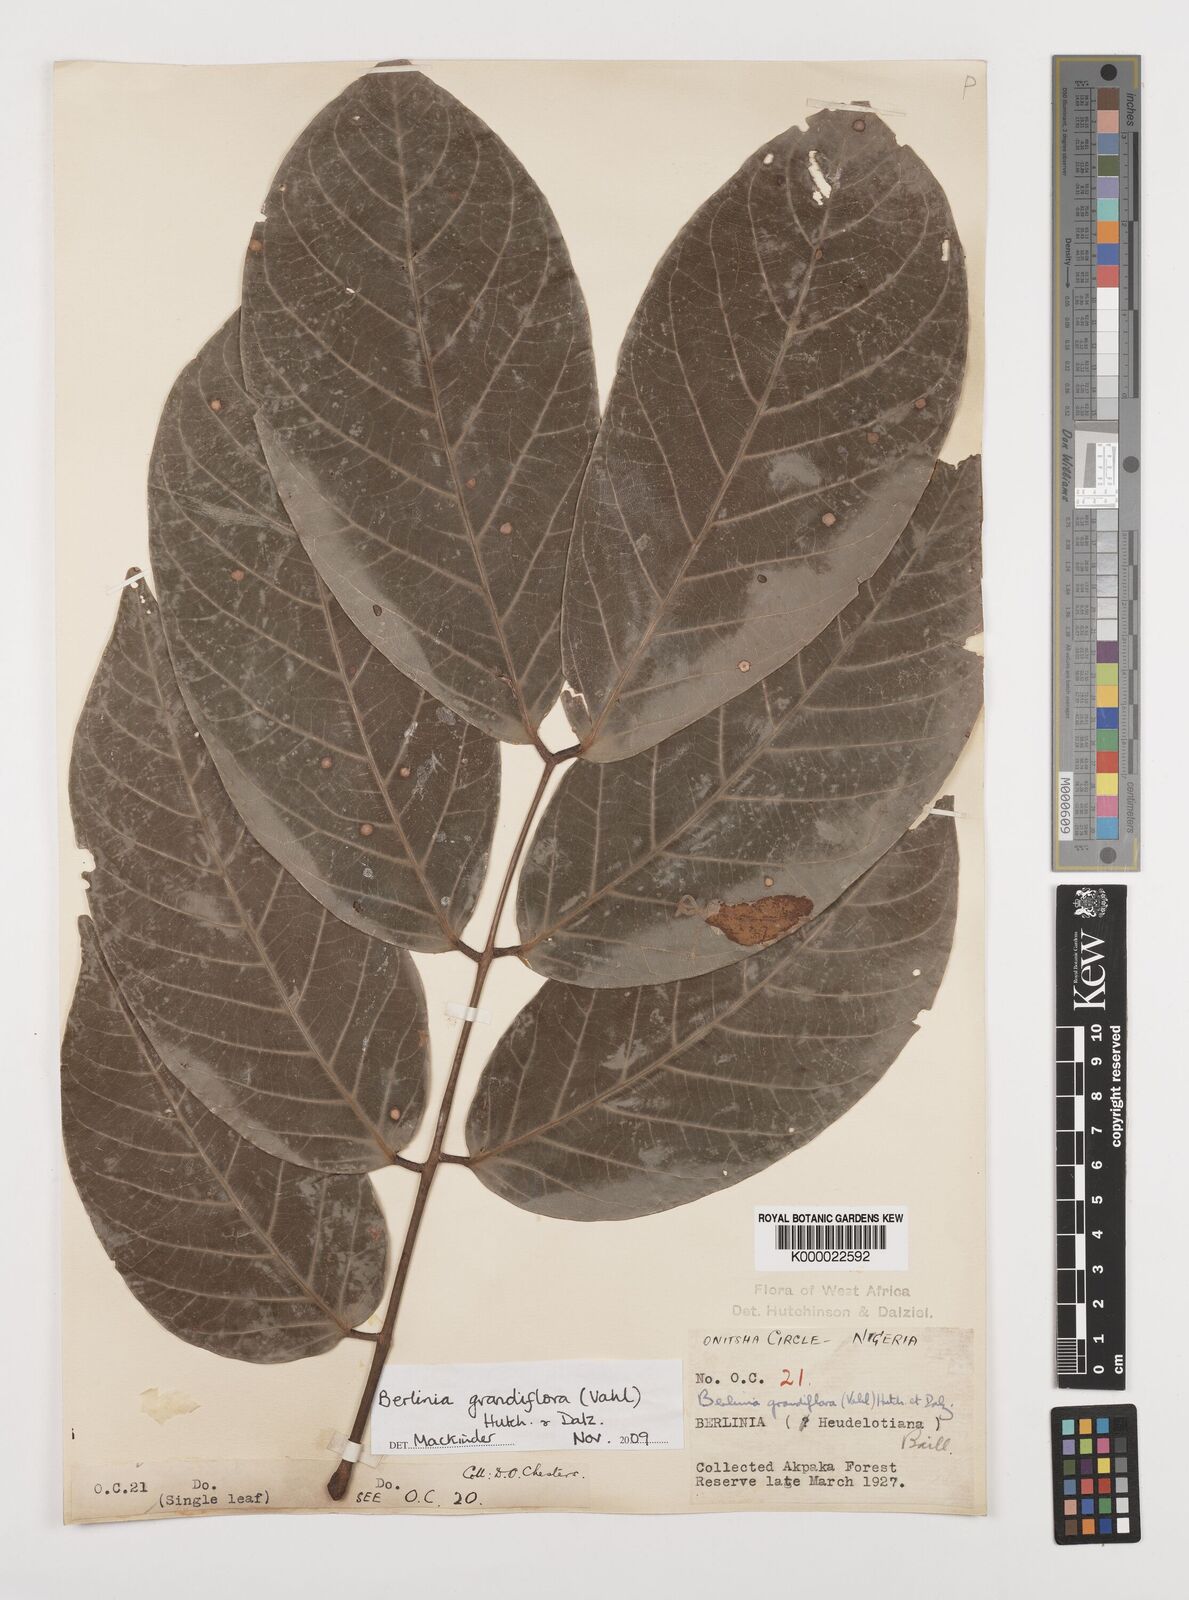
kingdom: Plantae
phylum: Tracheophyta
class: Magnoliopsida
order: Fabales
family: Fabaceae
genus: Berlinia
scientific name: Berlinia grandiflora
